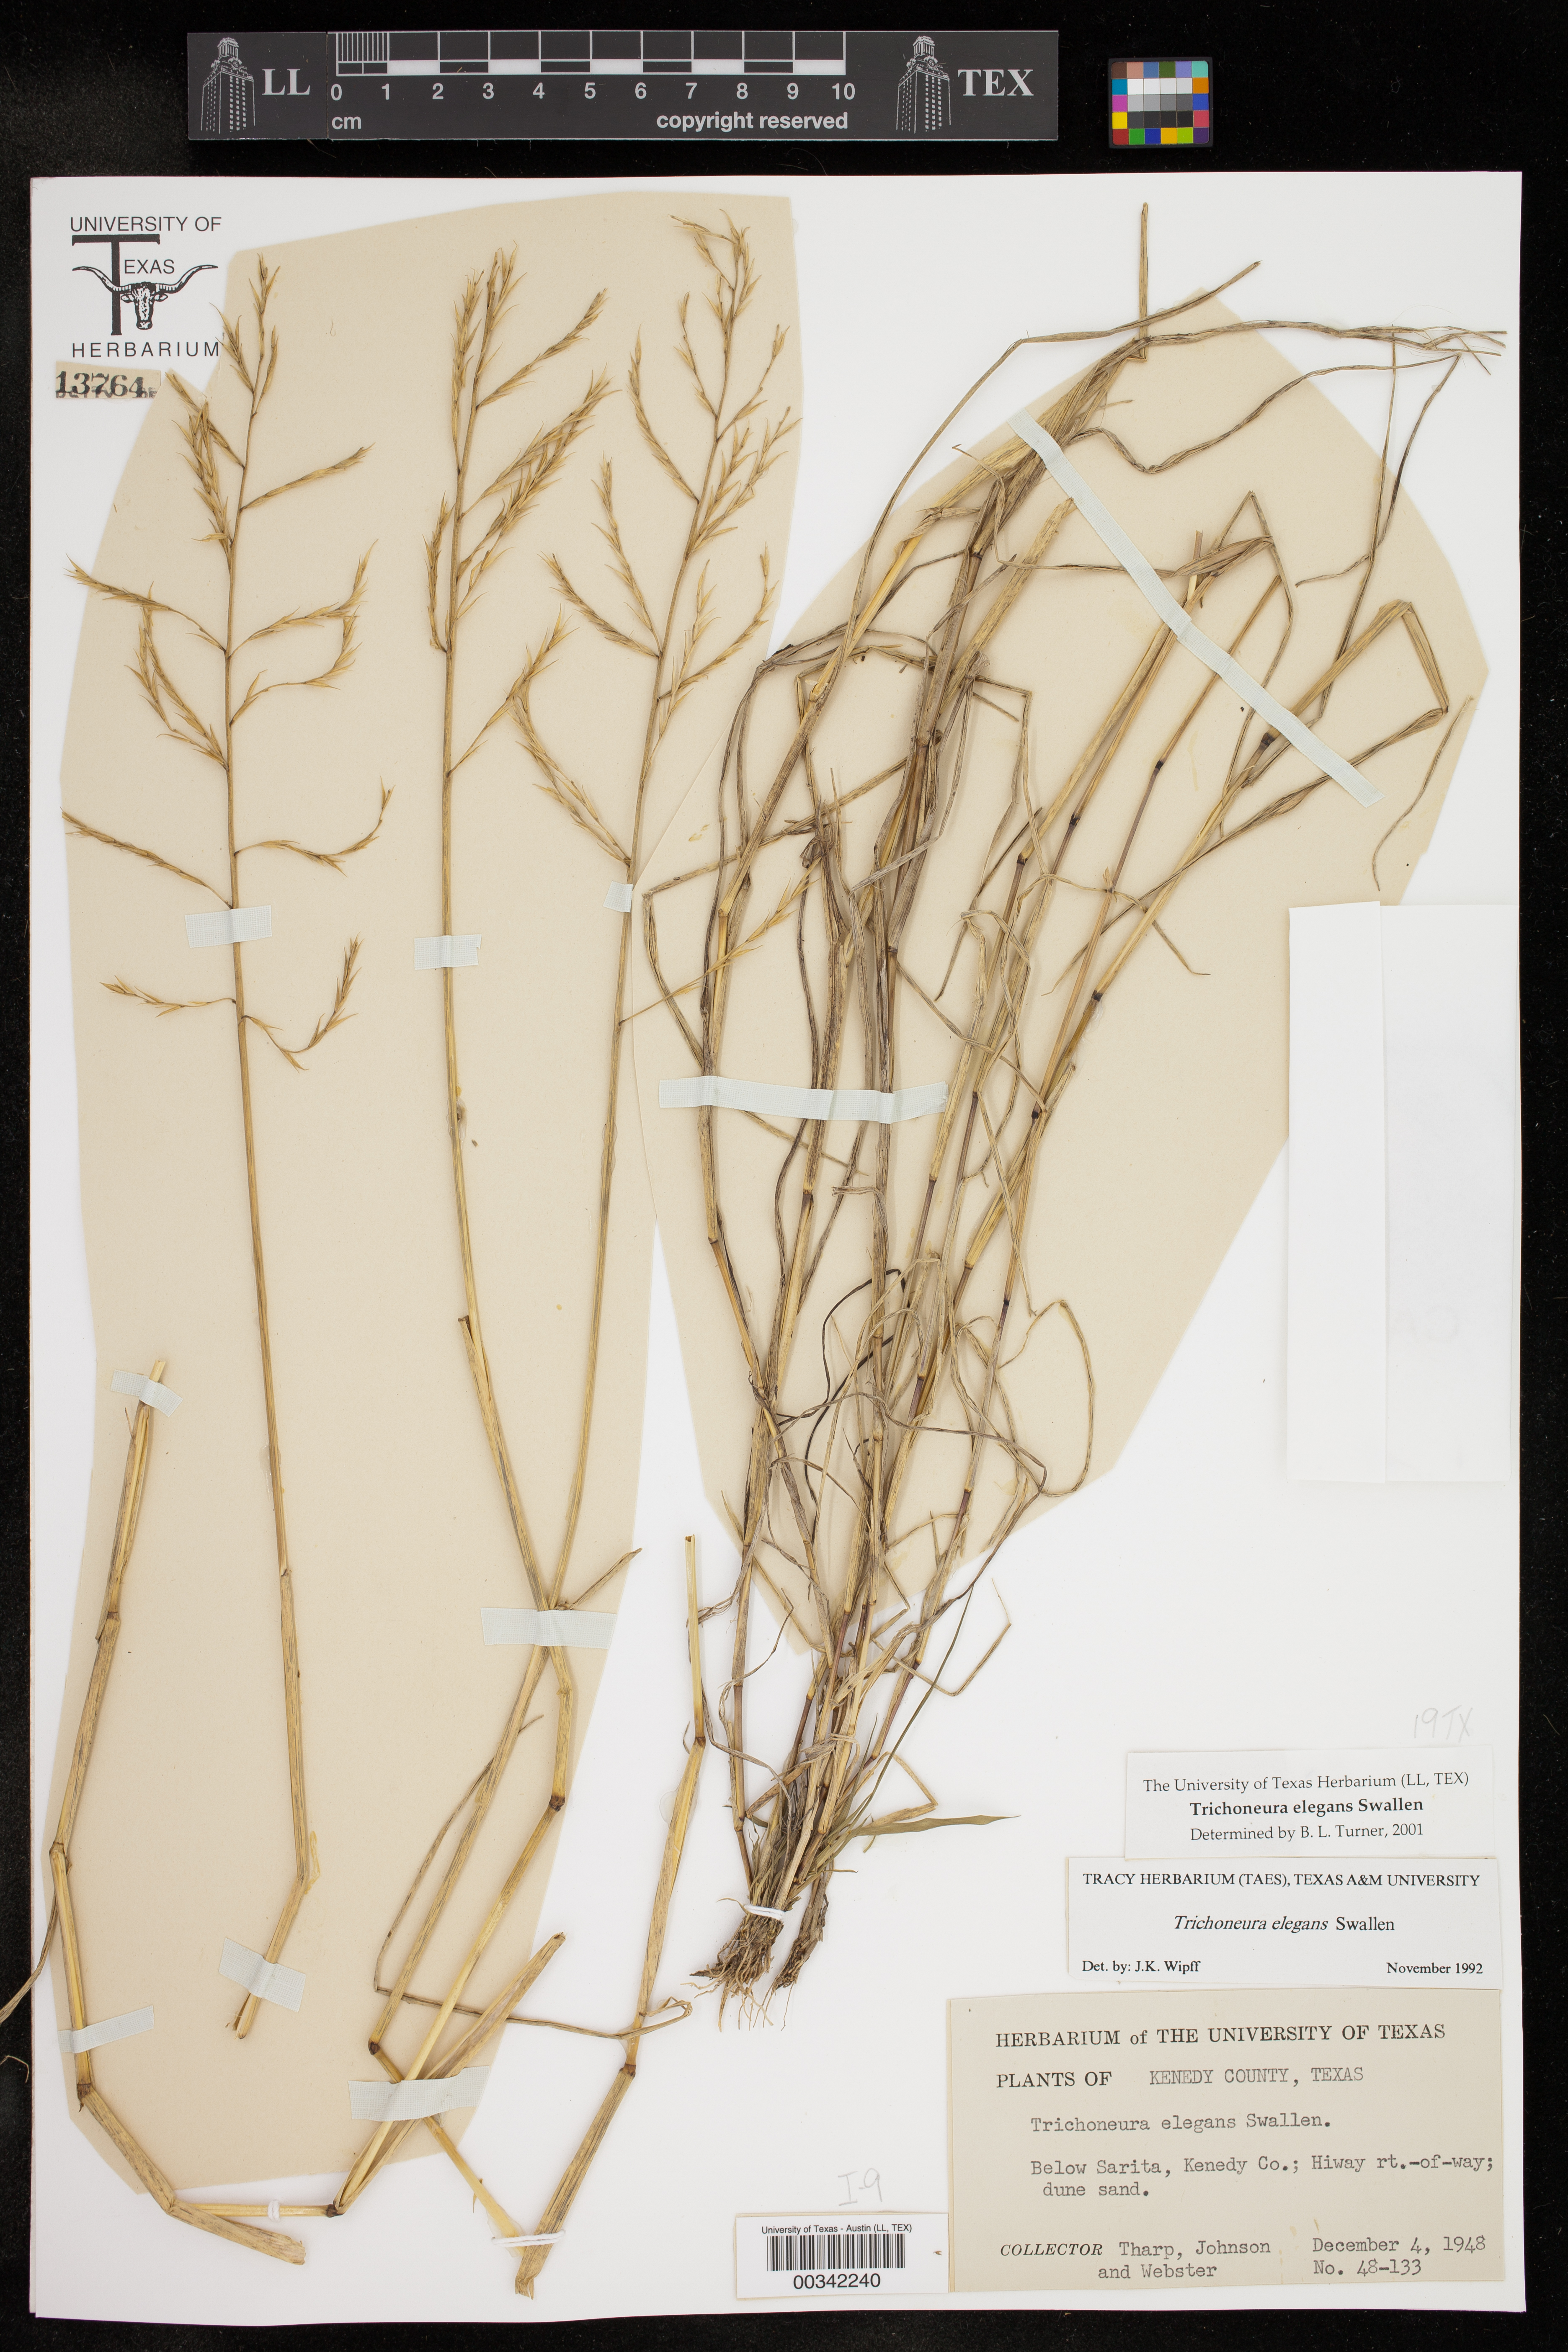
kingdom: Plantae
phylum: Tracheophyta
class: Liliopsida
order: Poales
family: Poaceae
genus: Trichoneura
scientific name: Trichoneura elegans
